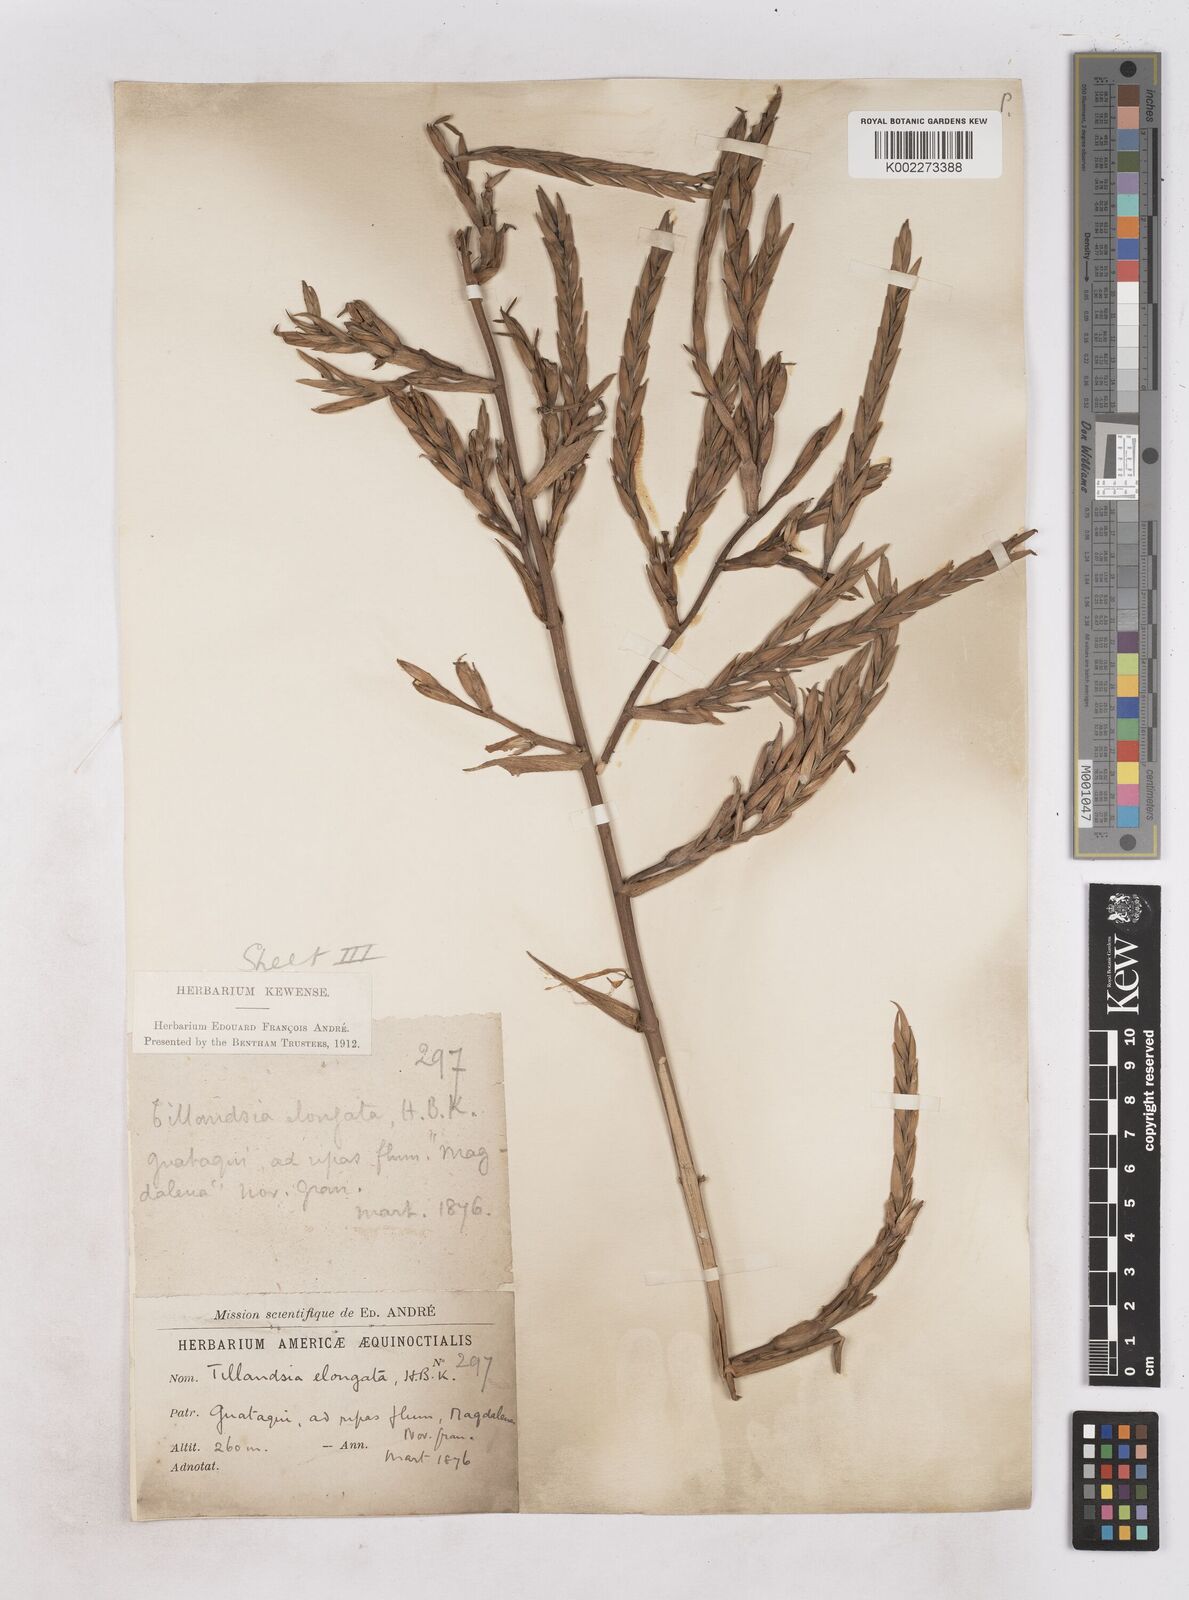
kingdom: Plantae
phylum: Tracheophyta
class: Liliopsida
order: Poales
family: Bromeliaceae
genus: Tillandsia
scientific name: Tillandsia elongata
